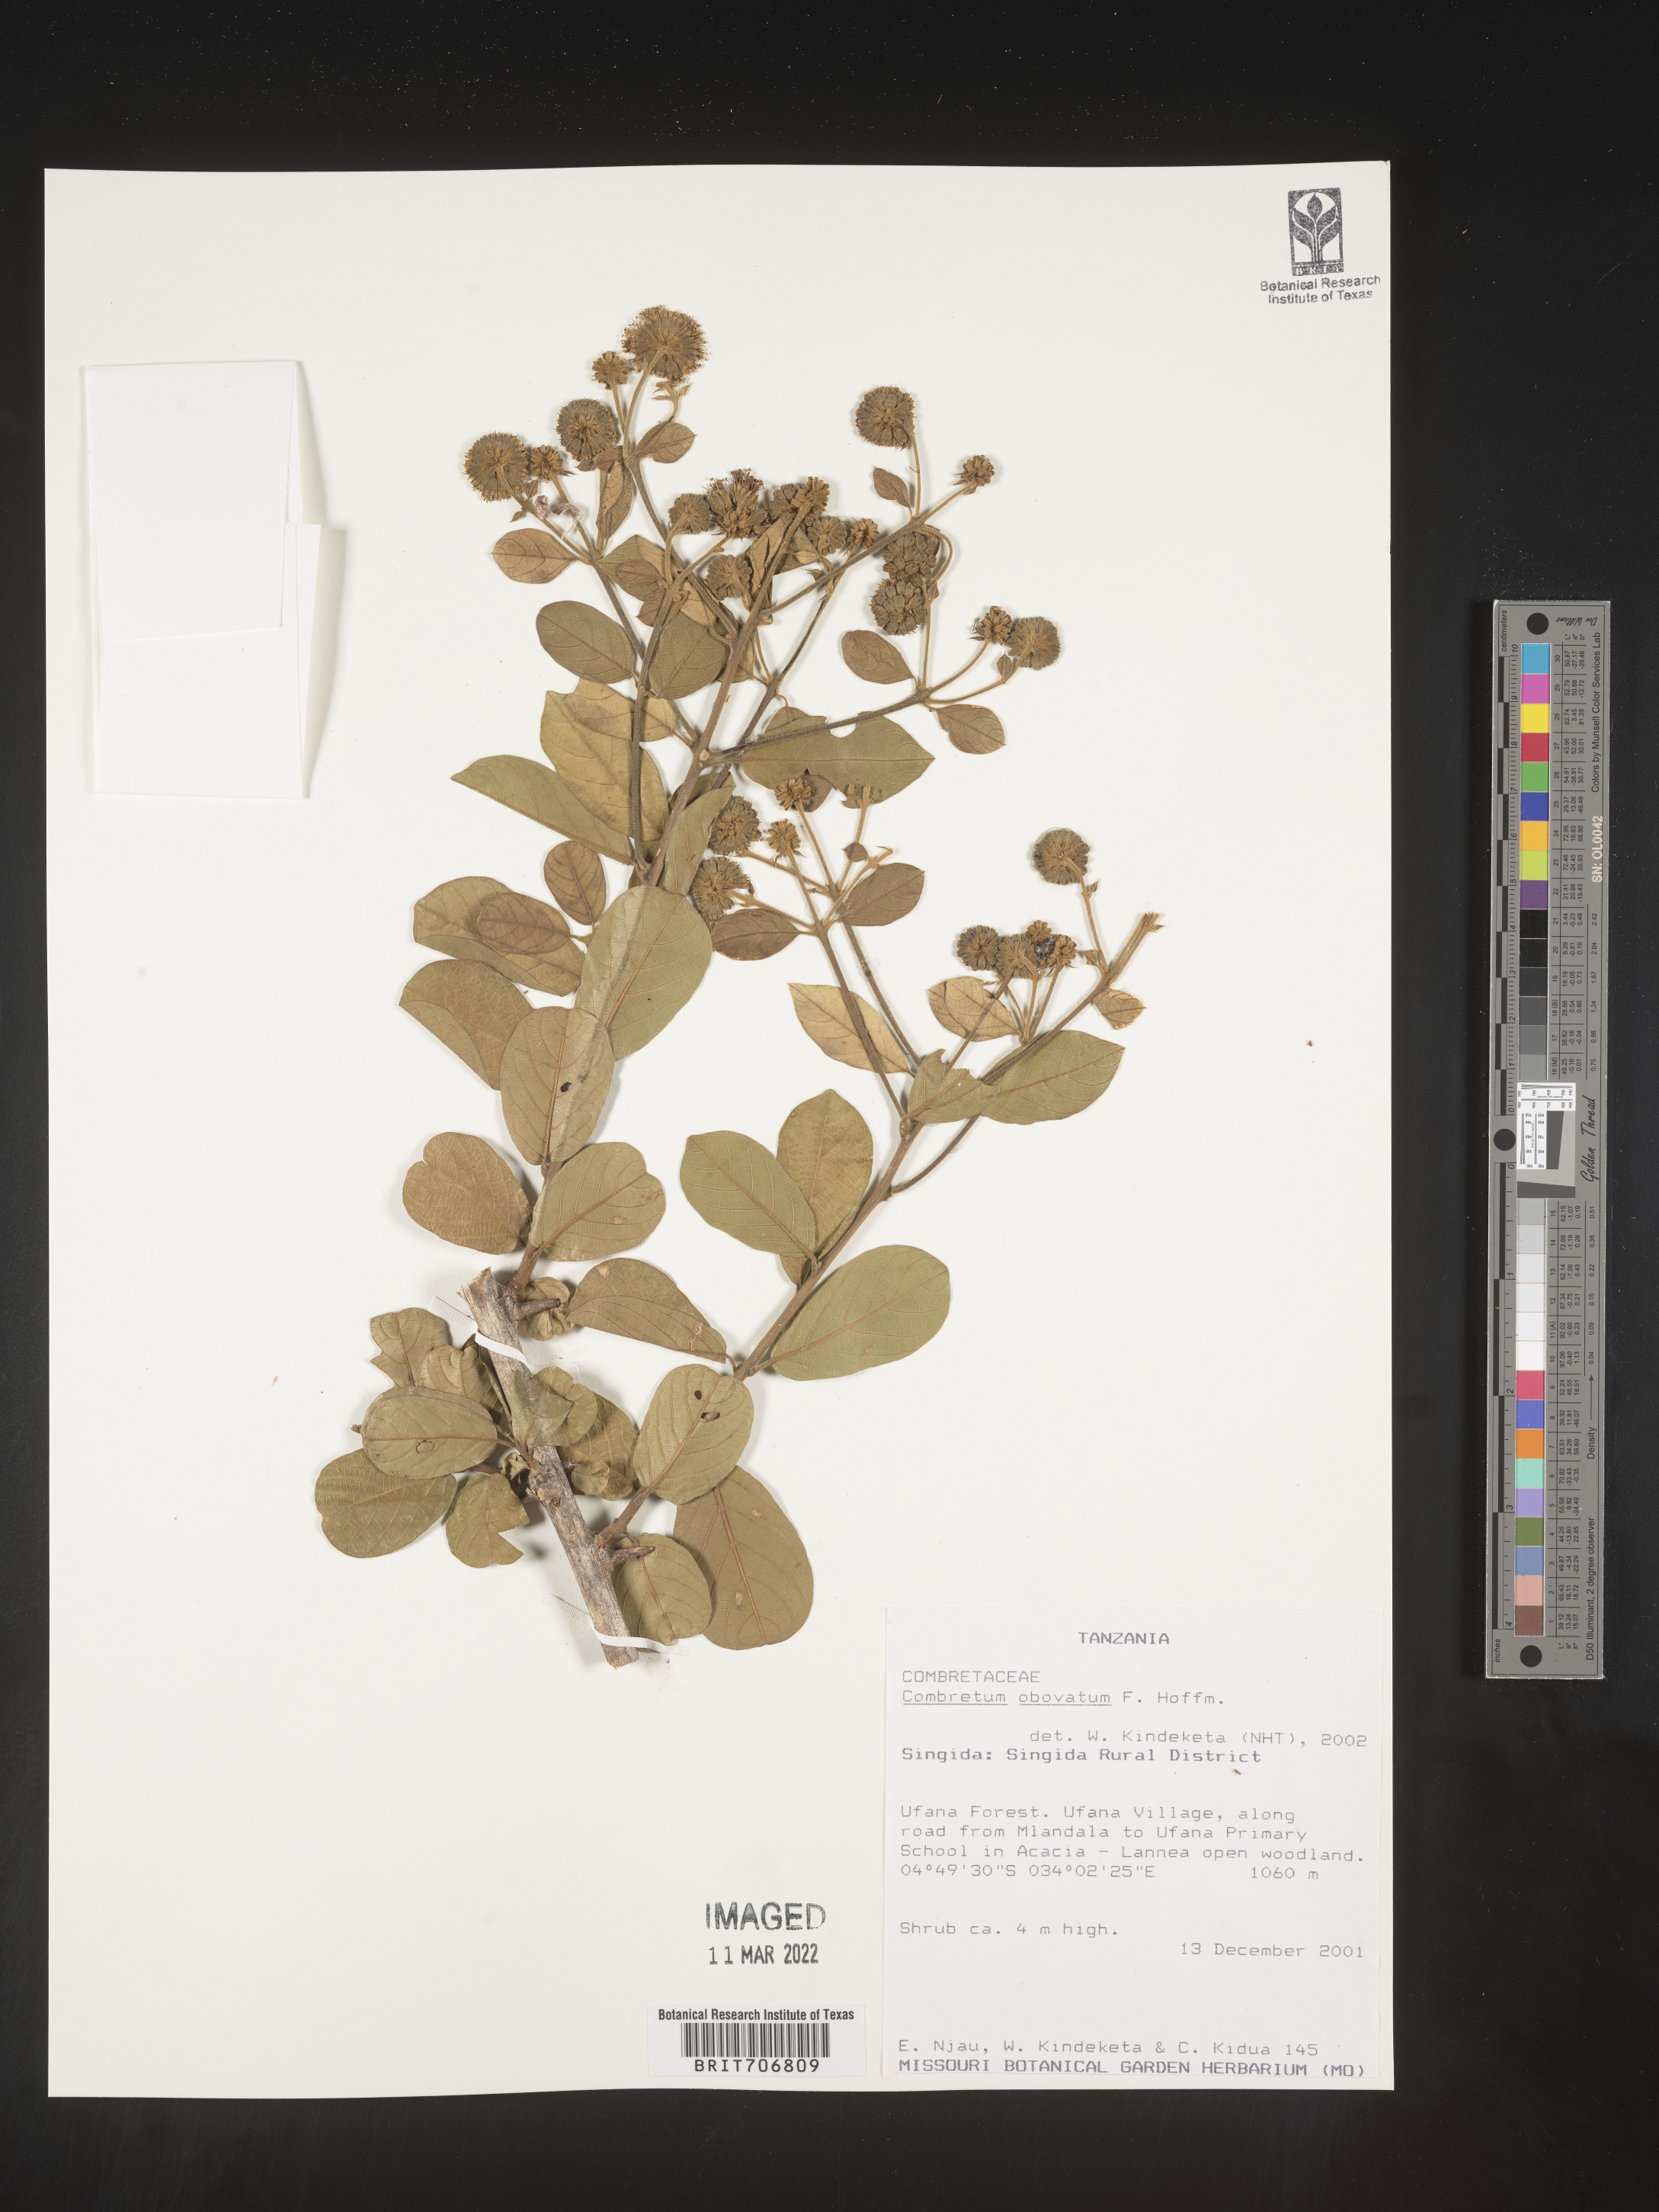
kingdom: Plantae
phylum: Tracheophyta
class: Magnoliopsida
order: Myrtales
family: Combretaceae
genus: Combretum
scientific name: Combretum
